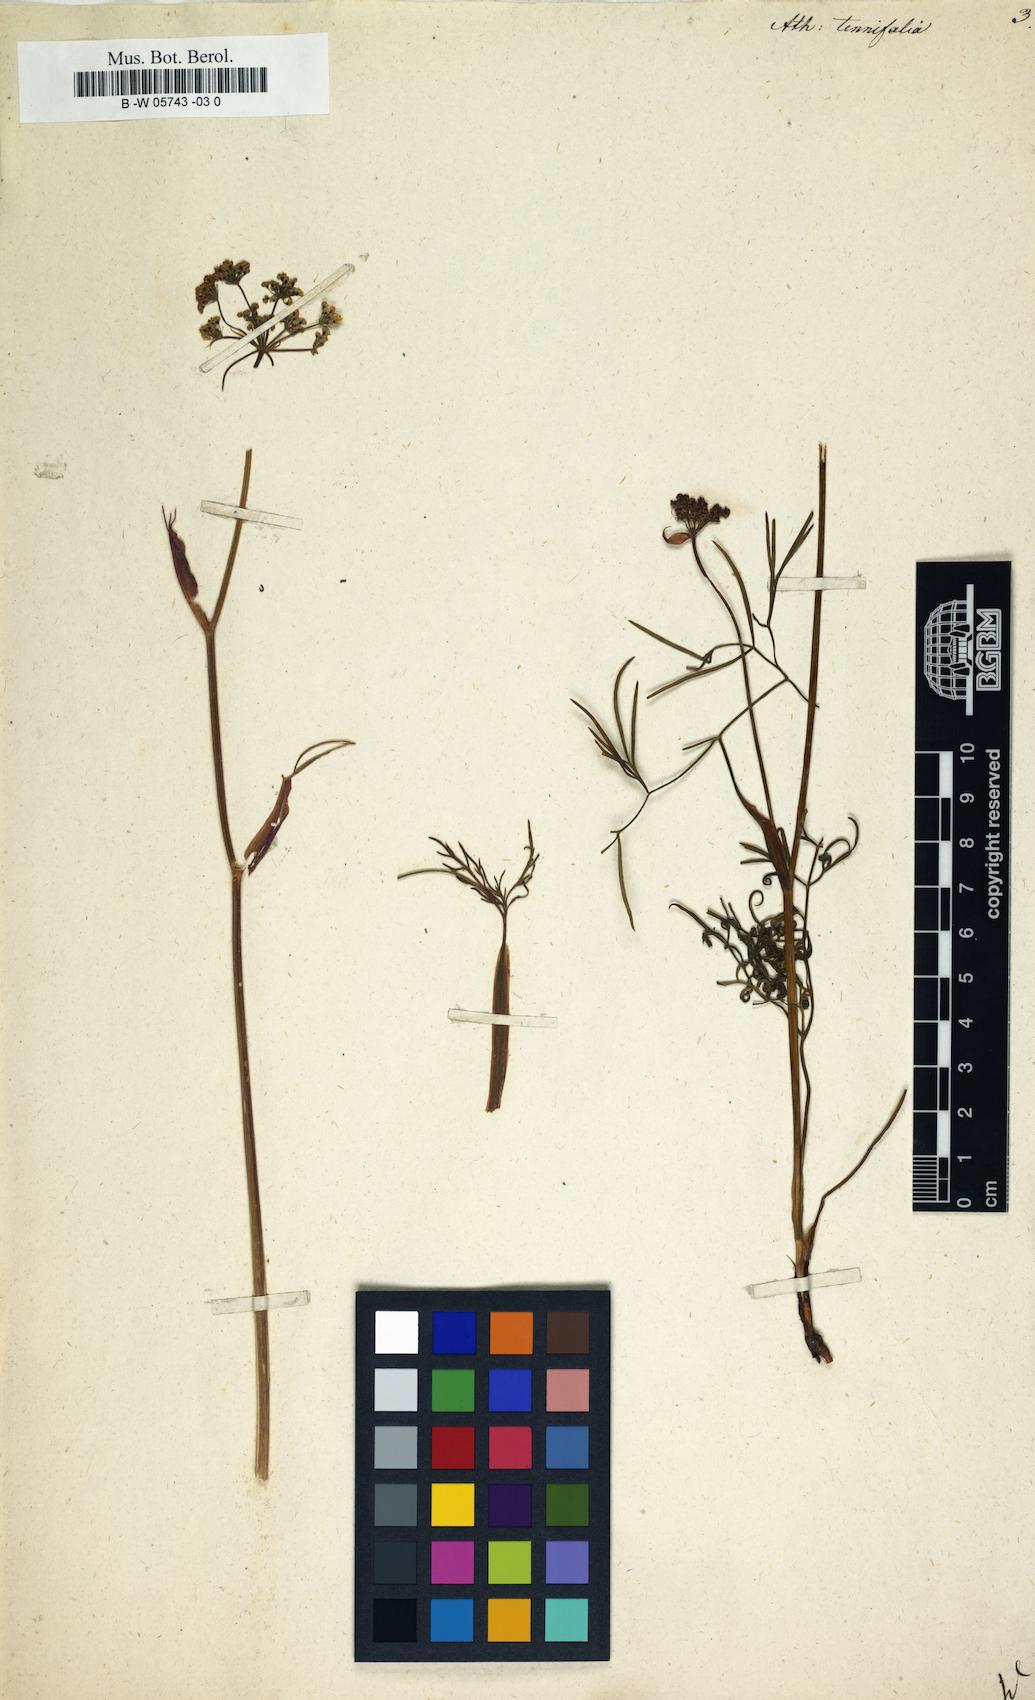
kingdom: Plantae
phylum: Tracheophyta
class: Magnoliopsida
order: Apiales
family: Apiaceae
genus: Ostericum
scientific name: Ostericum tenuifolium
